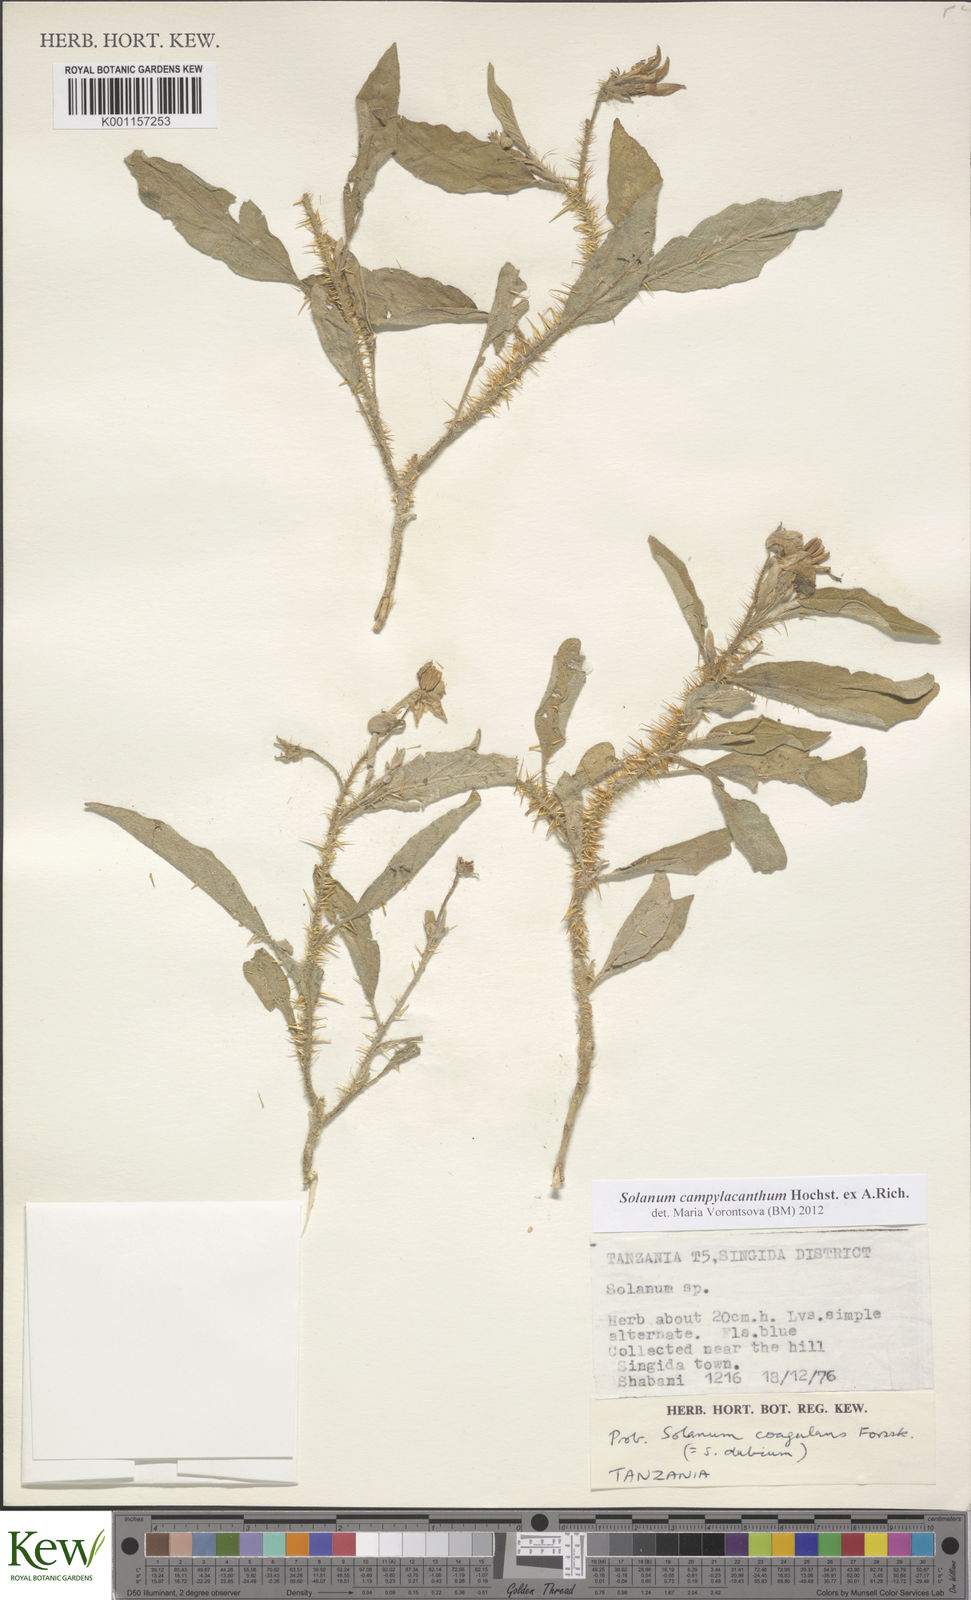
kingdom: Plantae
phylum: Tracheophyta
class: Magnoliopsida
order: Solanales
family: Solanaceae
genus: Solanum
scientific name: Solanum campylacanthum
